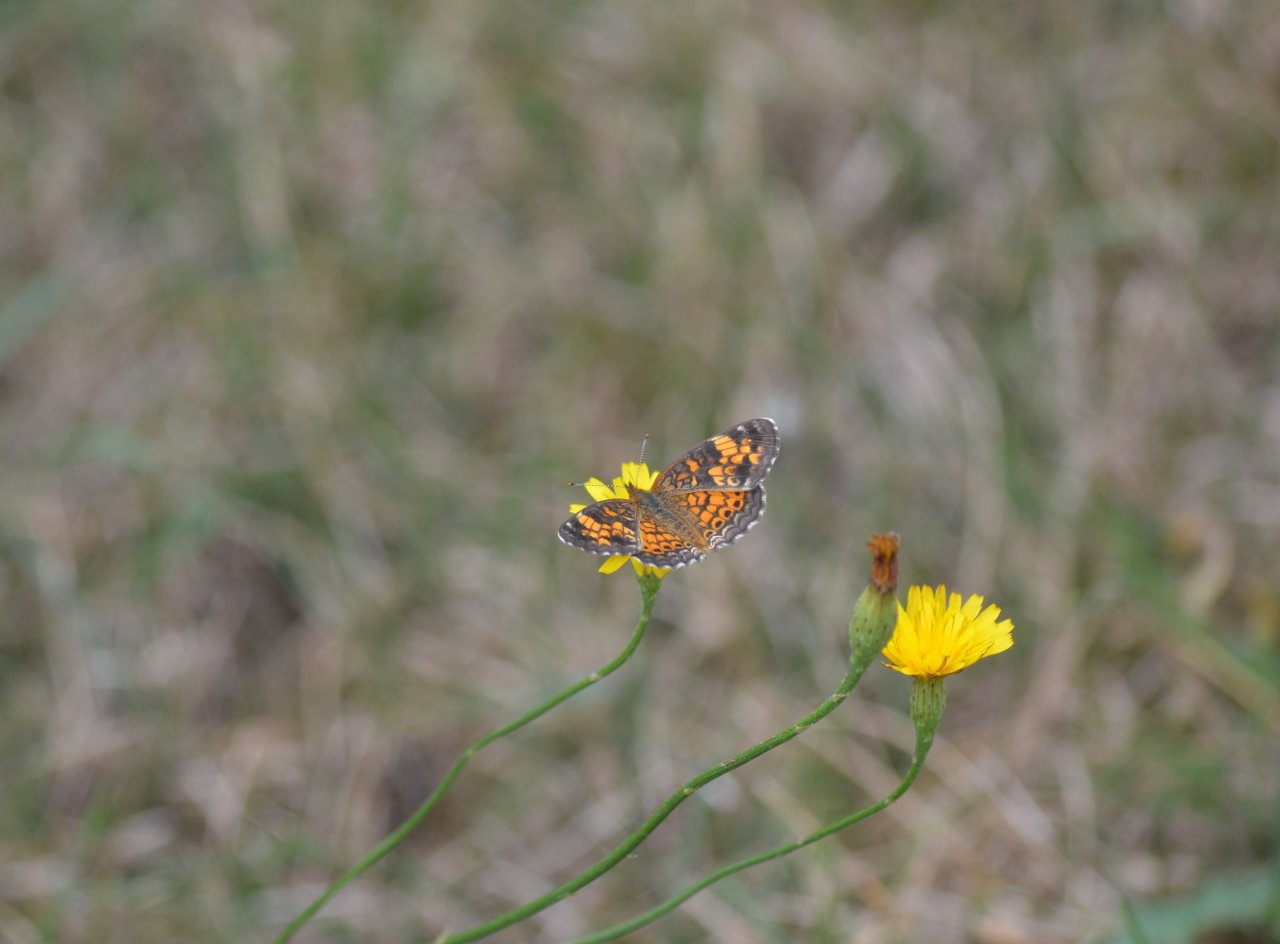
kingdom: Animalia
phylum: Arthropoda
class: Insecta
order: Lepidoptera
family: Nymphalidae
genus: Phyciodes
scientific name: Phyciodes tharos
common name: Pearl Crescent
